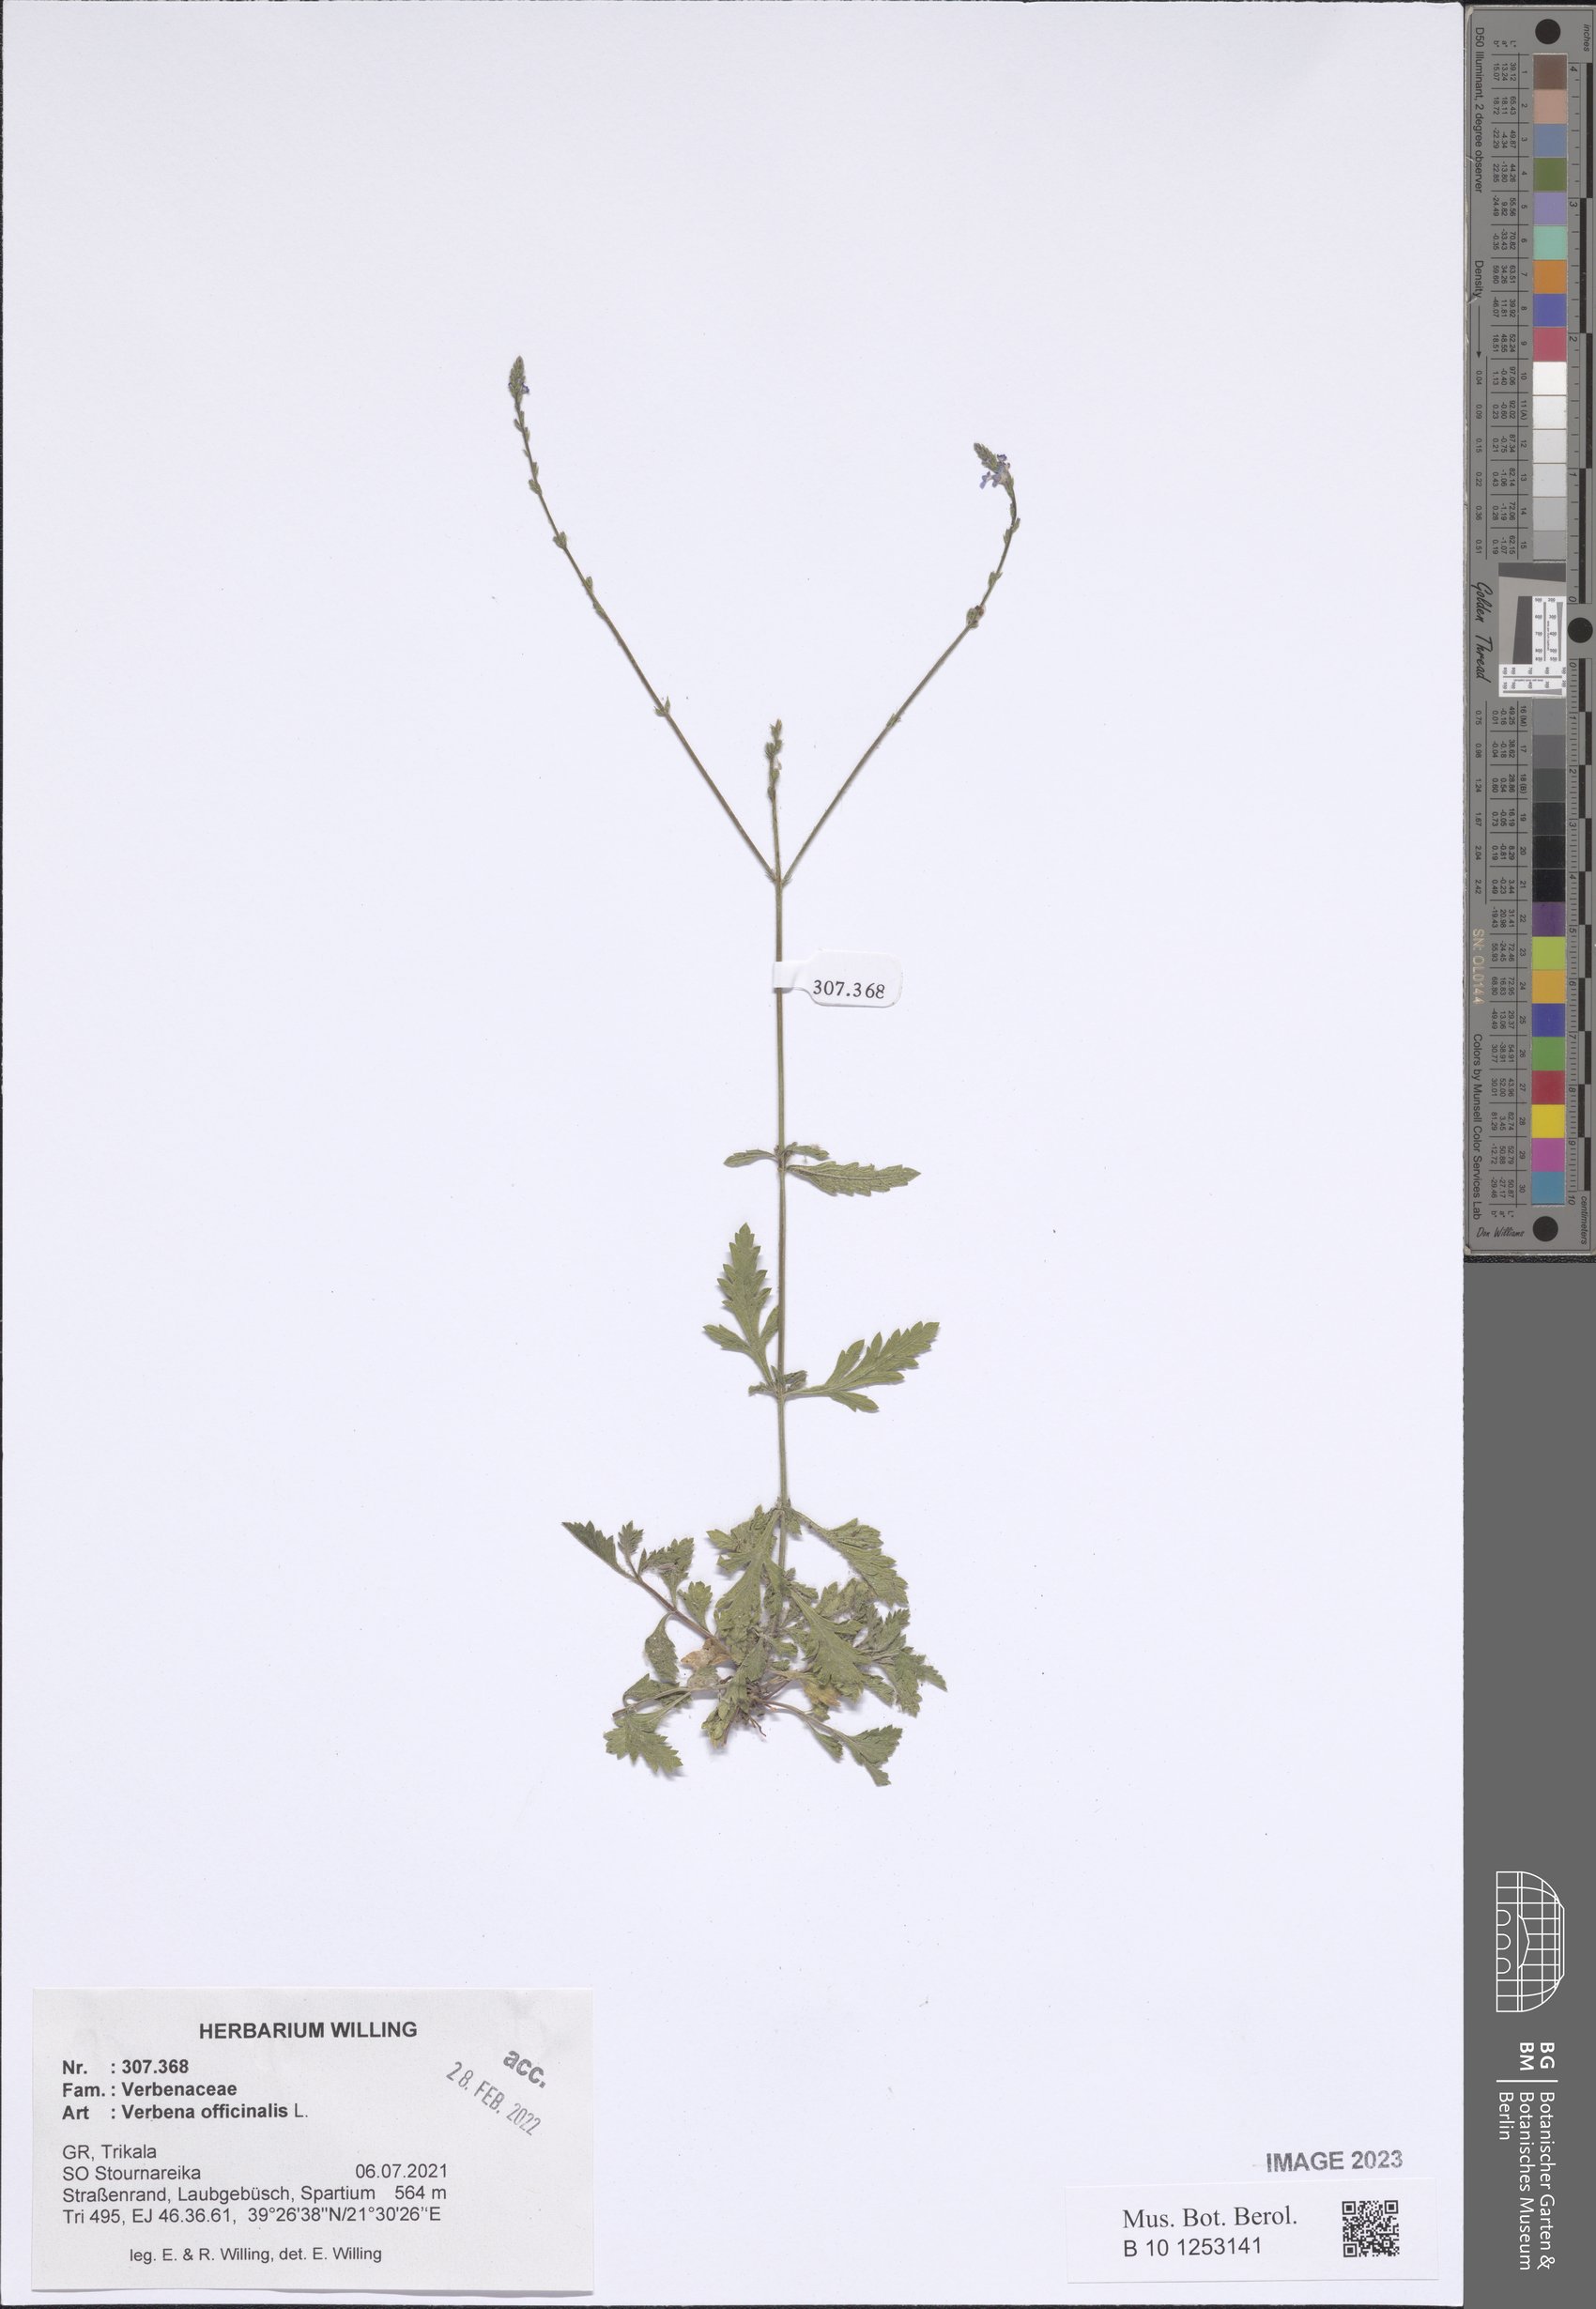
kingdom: Plantae
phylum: Tracheophyta
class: Magnoliopsida
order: Lamiales
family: Verbenaceae
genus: Verbena
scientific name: Verbena officinalis
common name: Vervain
